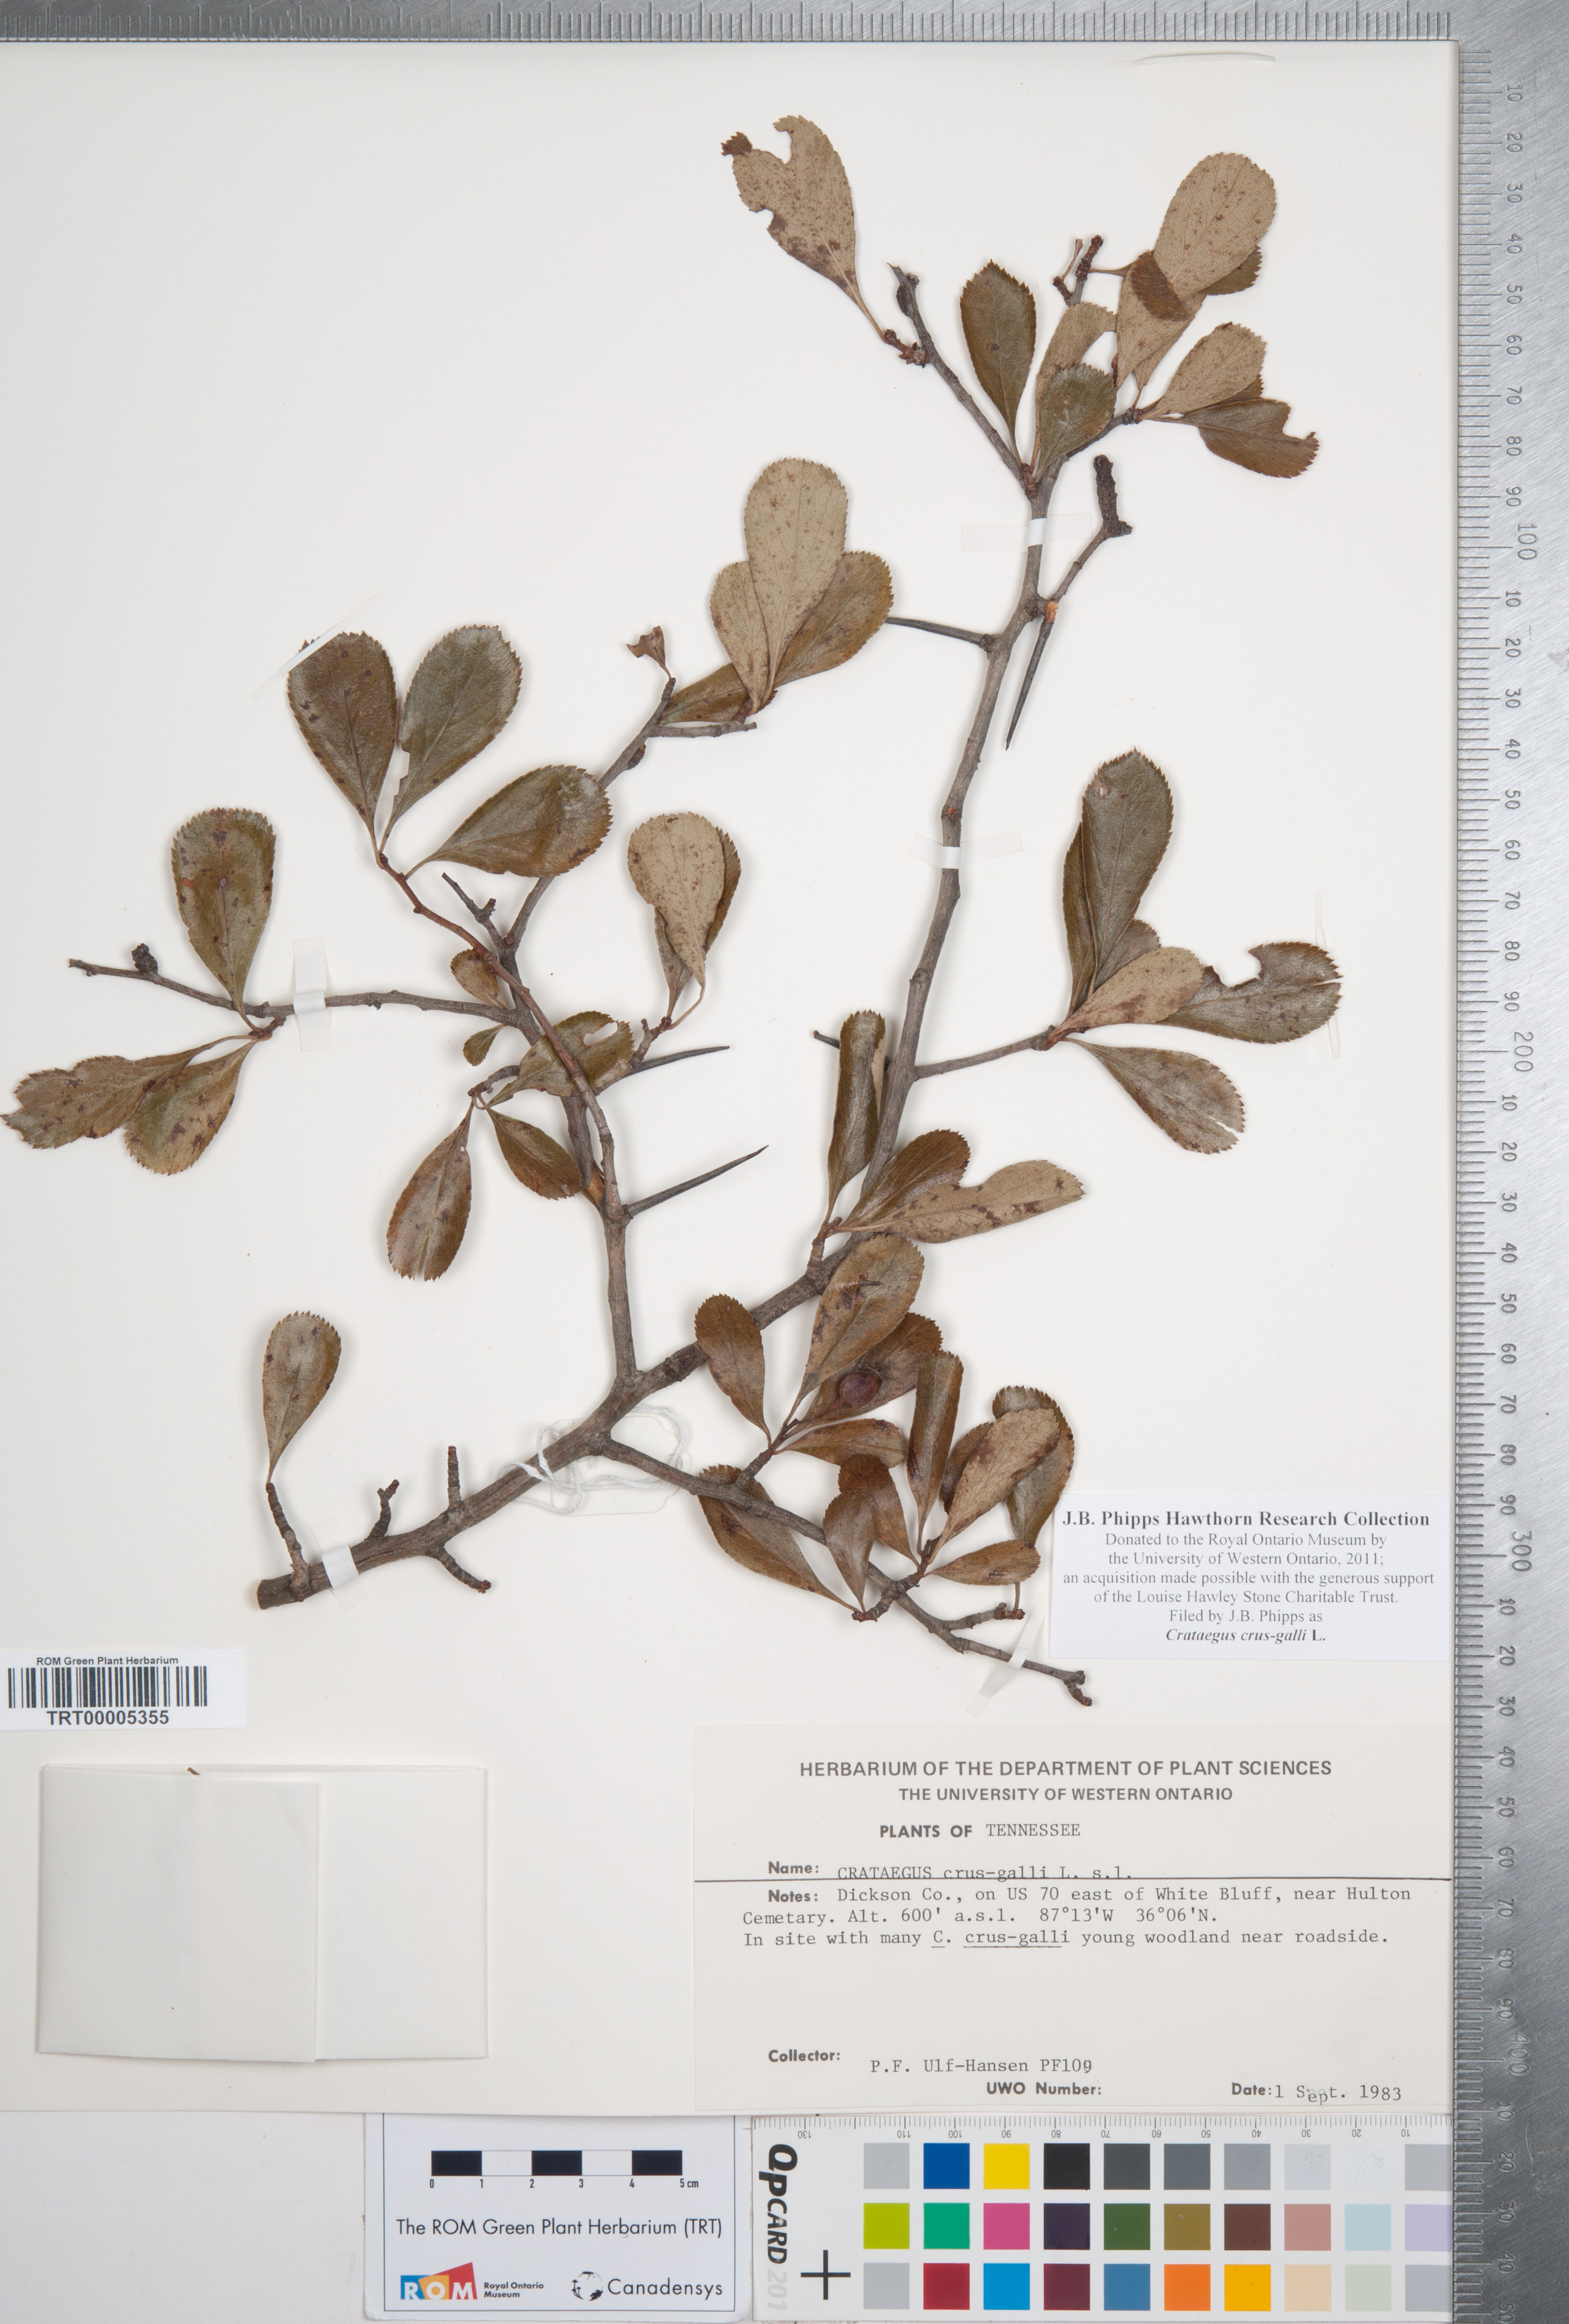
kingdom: Plantae
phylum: Tracheophyta
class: Magnoliopsida
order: Rosales
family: Rosaceae
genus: Crataegus
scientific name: Crataegus crus-galli
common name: Cockspurthorn
